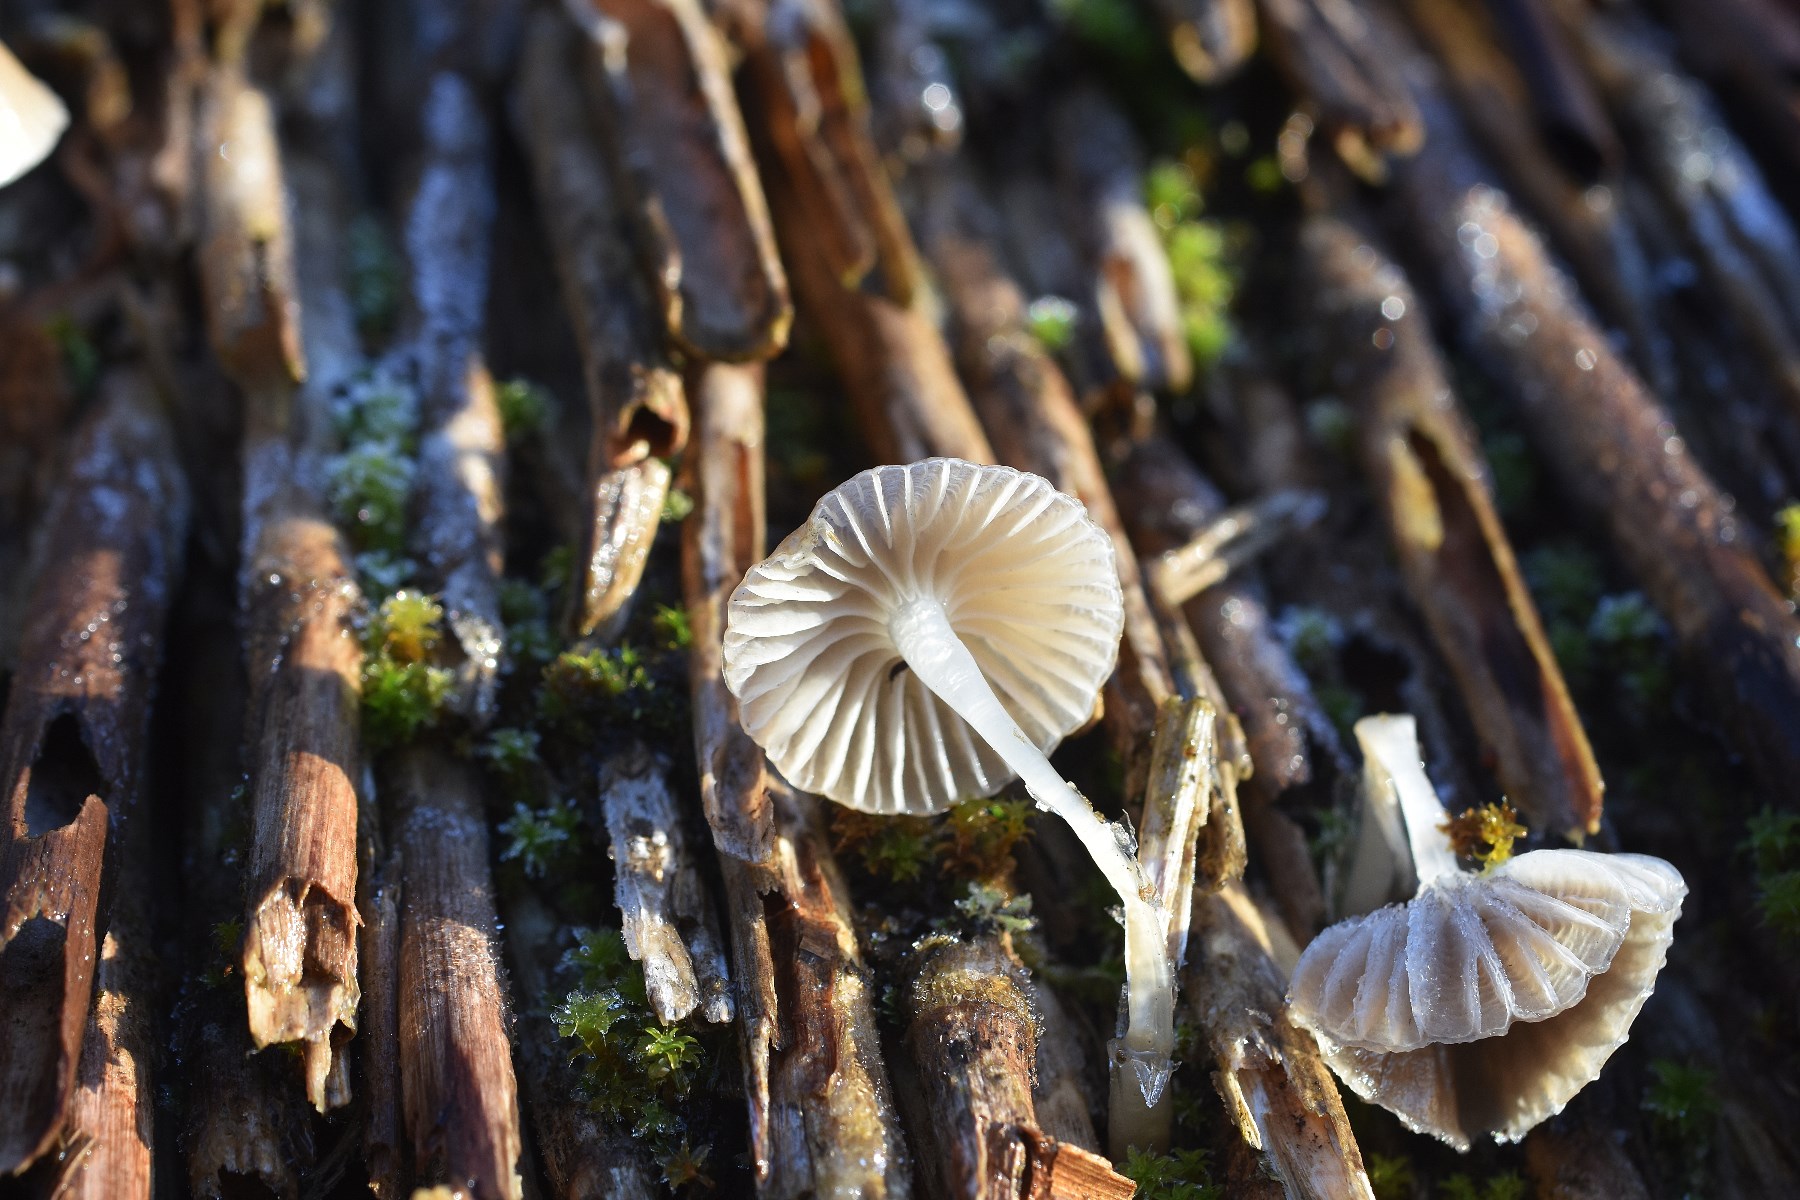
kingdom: Fungi
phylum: Basidiomycota
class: Agaricomycetes
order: Agaricales
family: Mycenaceae
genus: Mycena
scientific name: Mycena epipterygia
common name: gulstokket huesvamp
